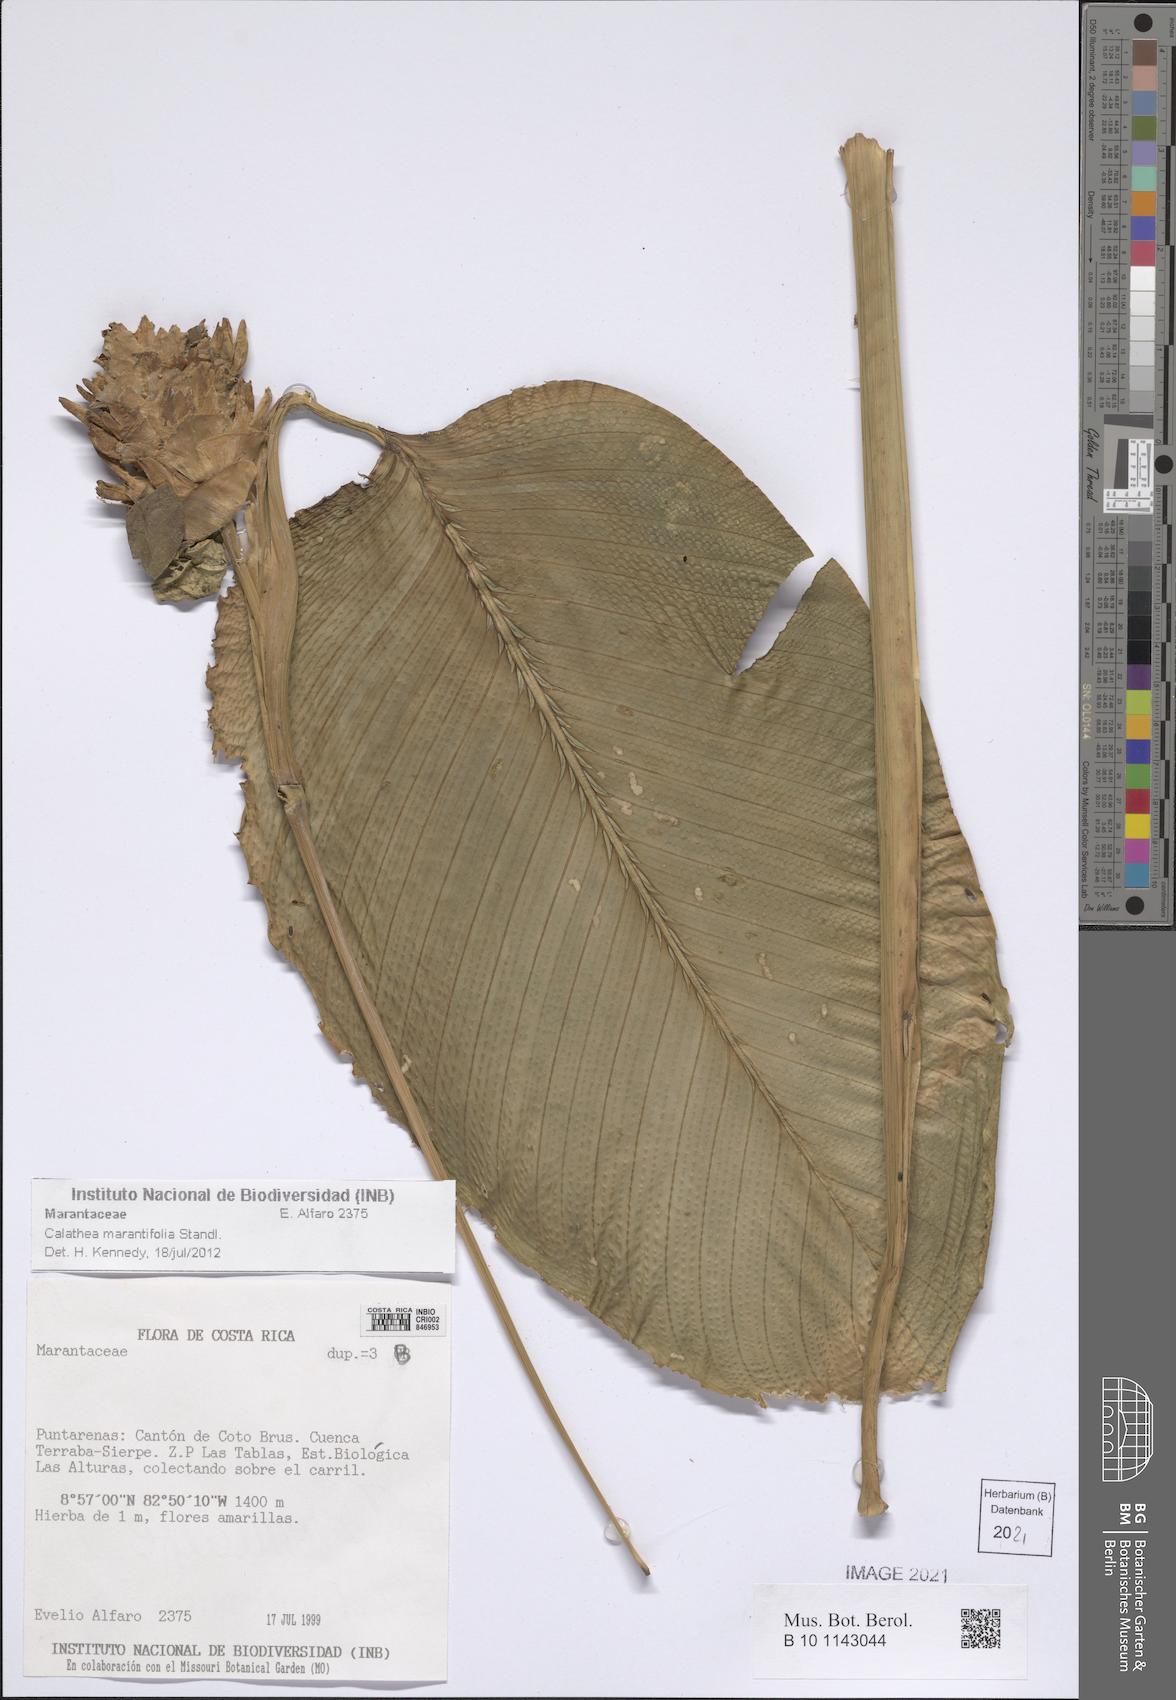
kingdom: Plantae
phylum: Tracheophyta
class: Liliopsida
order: Zingiberales
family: Marantaceae
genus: Goeppertia
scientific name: Goeppertia marantifolia
